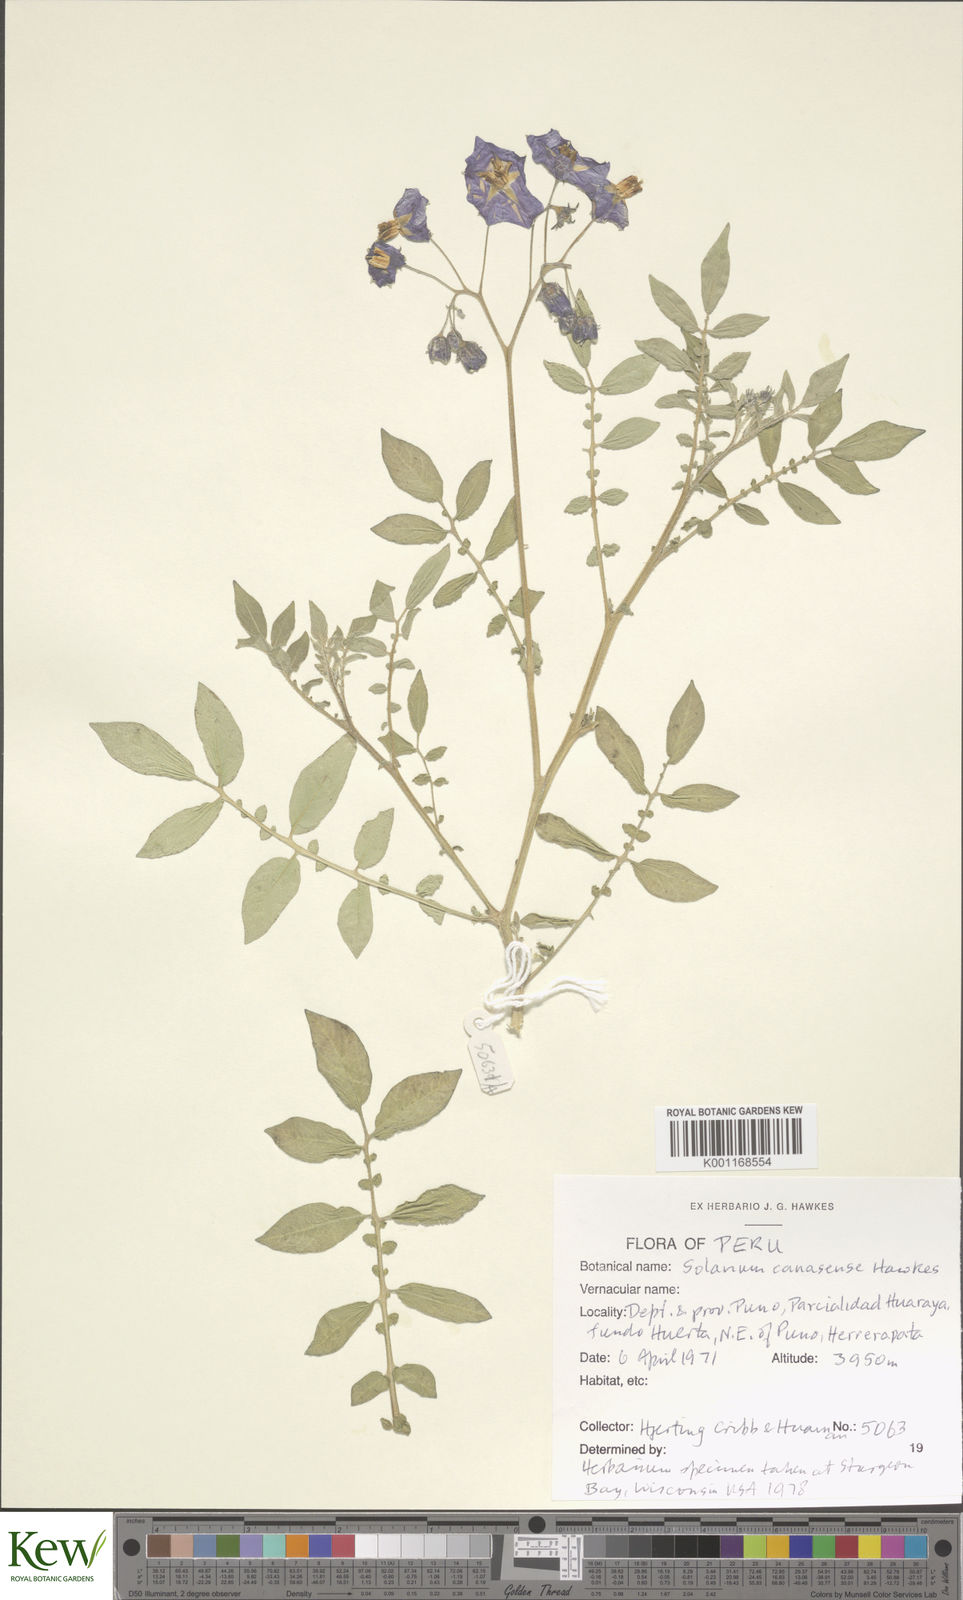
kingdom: Plantae
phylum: Tracheophyta
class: Magnoliopsida
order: Solanales
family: Solanaceae
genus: Solanum
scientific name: Solanum candolleanum
